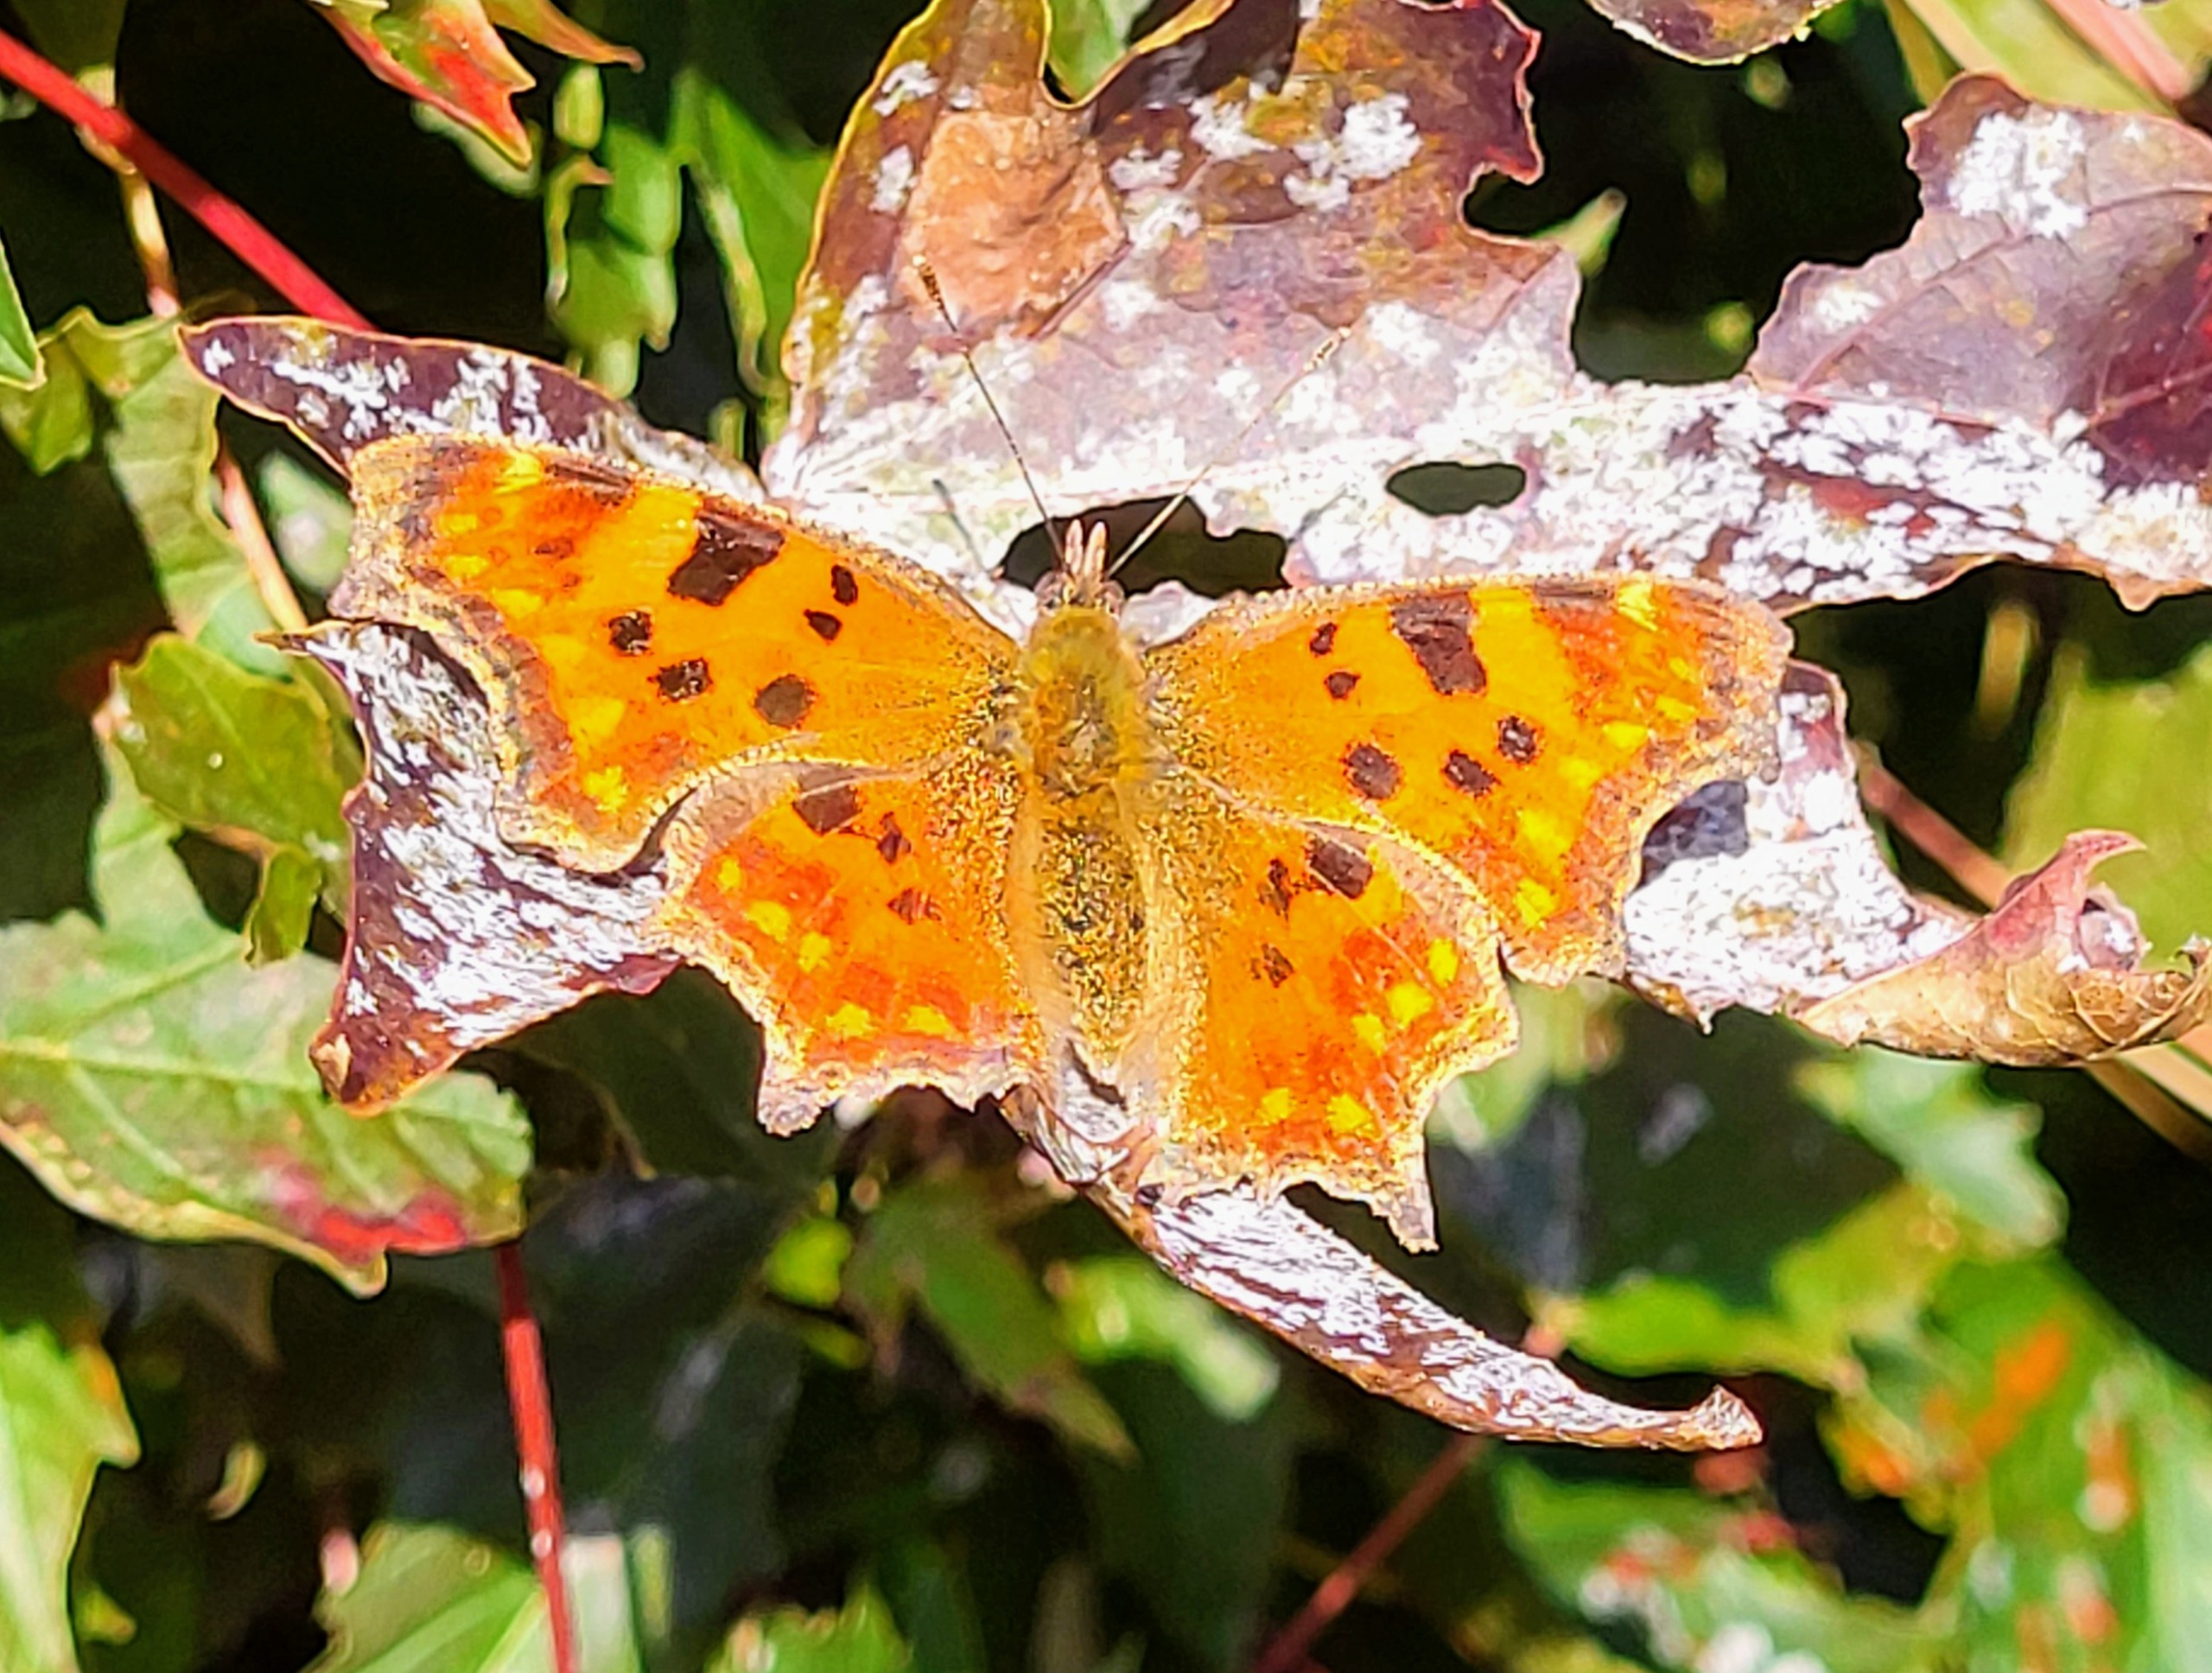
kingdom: Animalia
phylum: Arthropoda
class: Insecta
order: Lepidoptera
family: Nymphalidae
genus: Polygonia
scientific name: Polygonia c-album
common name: Det hvide C
